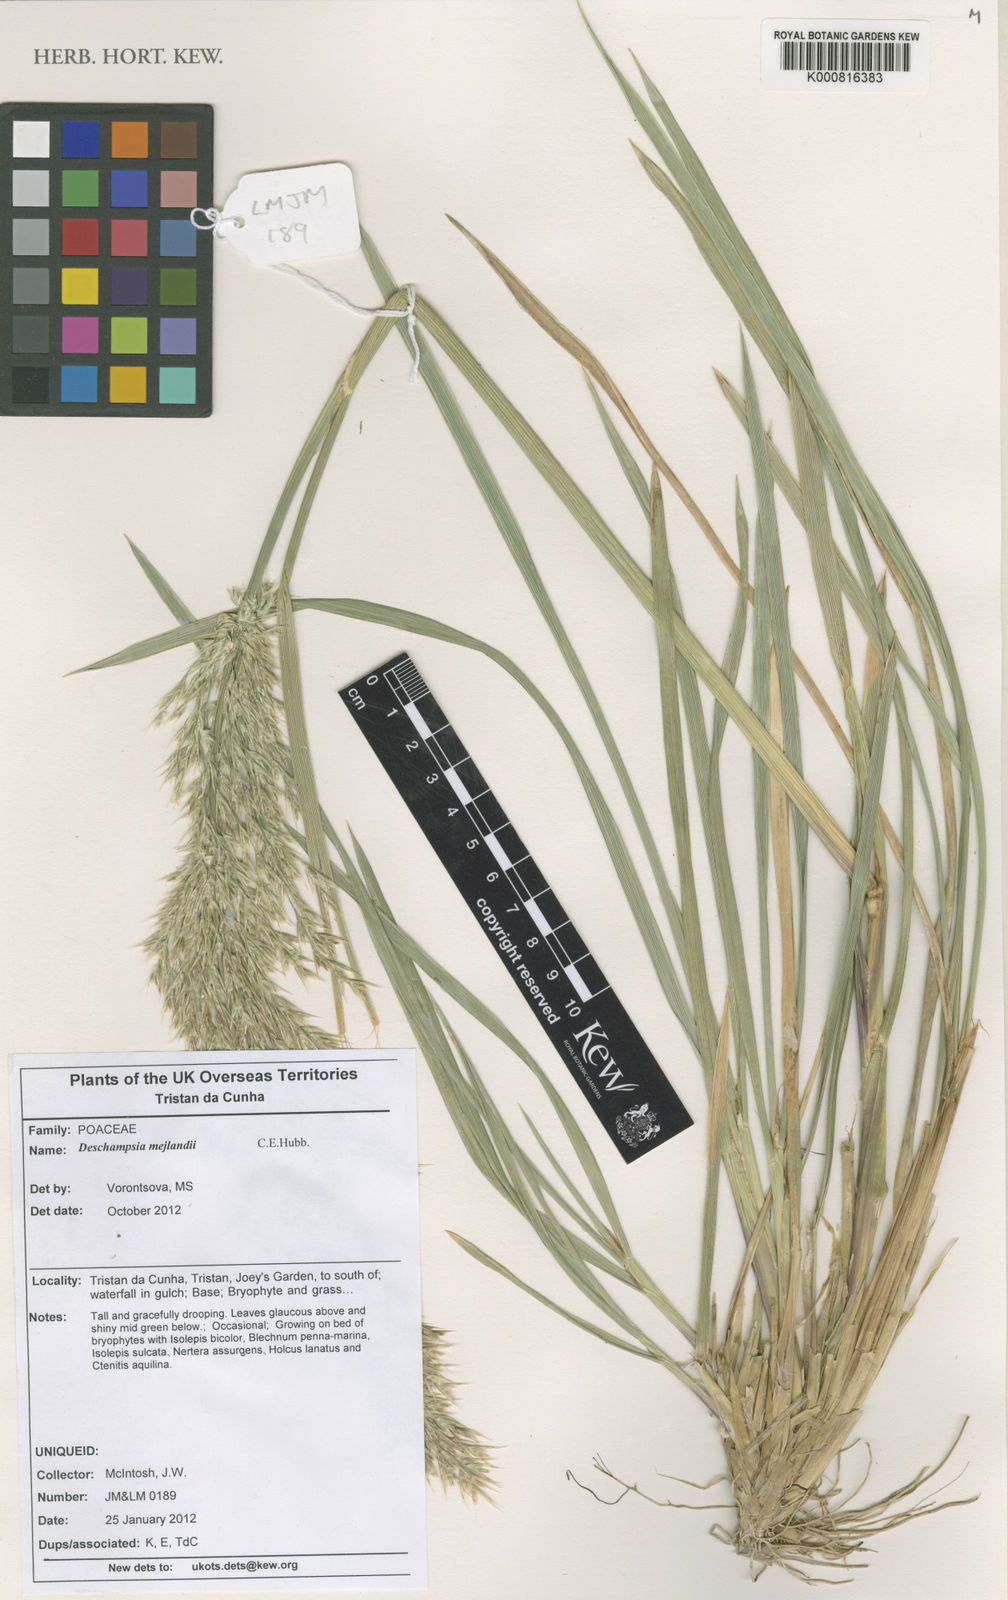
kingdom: Plantae
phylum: Tracheophyta
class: Liliopsida
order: Poales
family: Poaceae
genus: Deschampsia
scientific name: Deschampsia mejlandii
